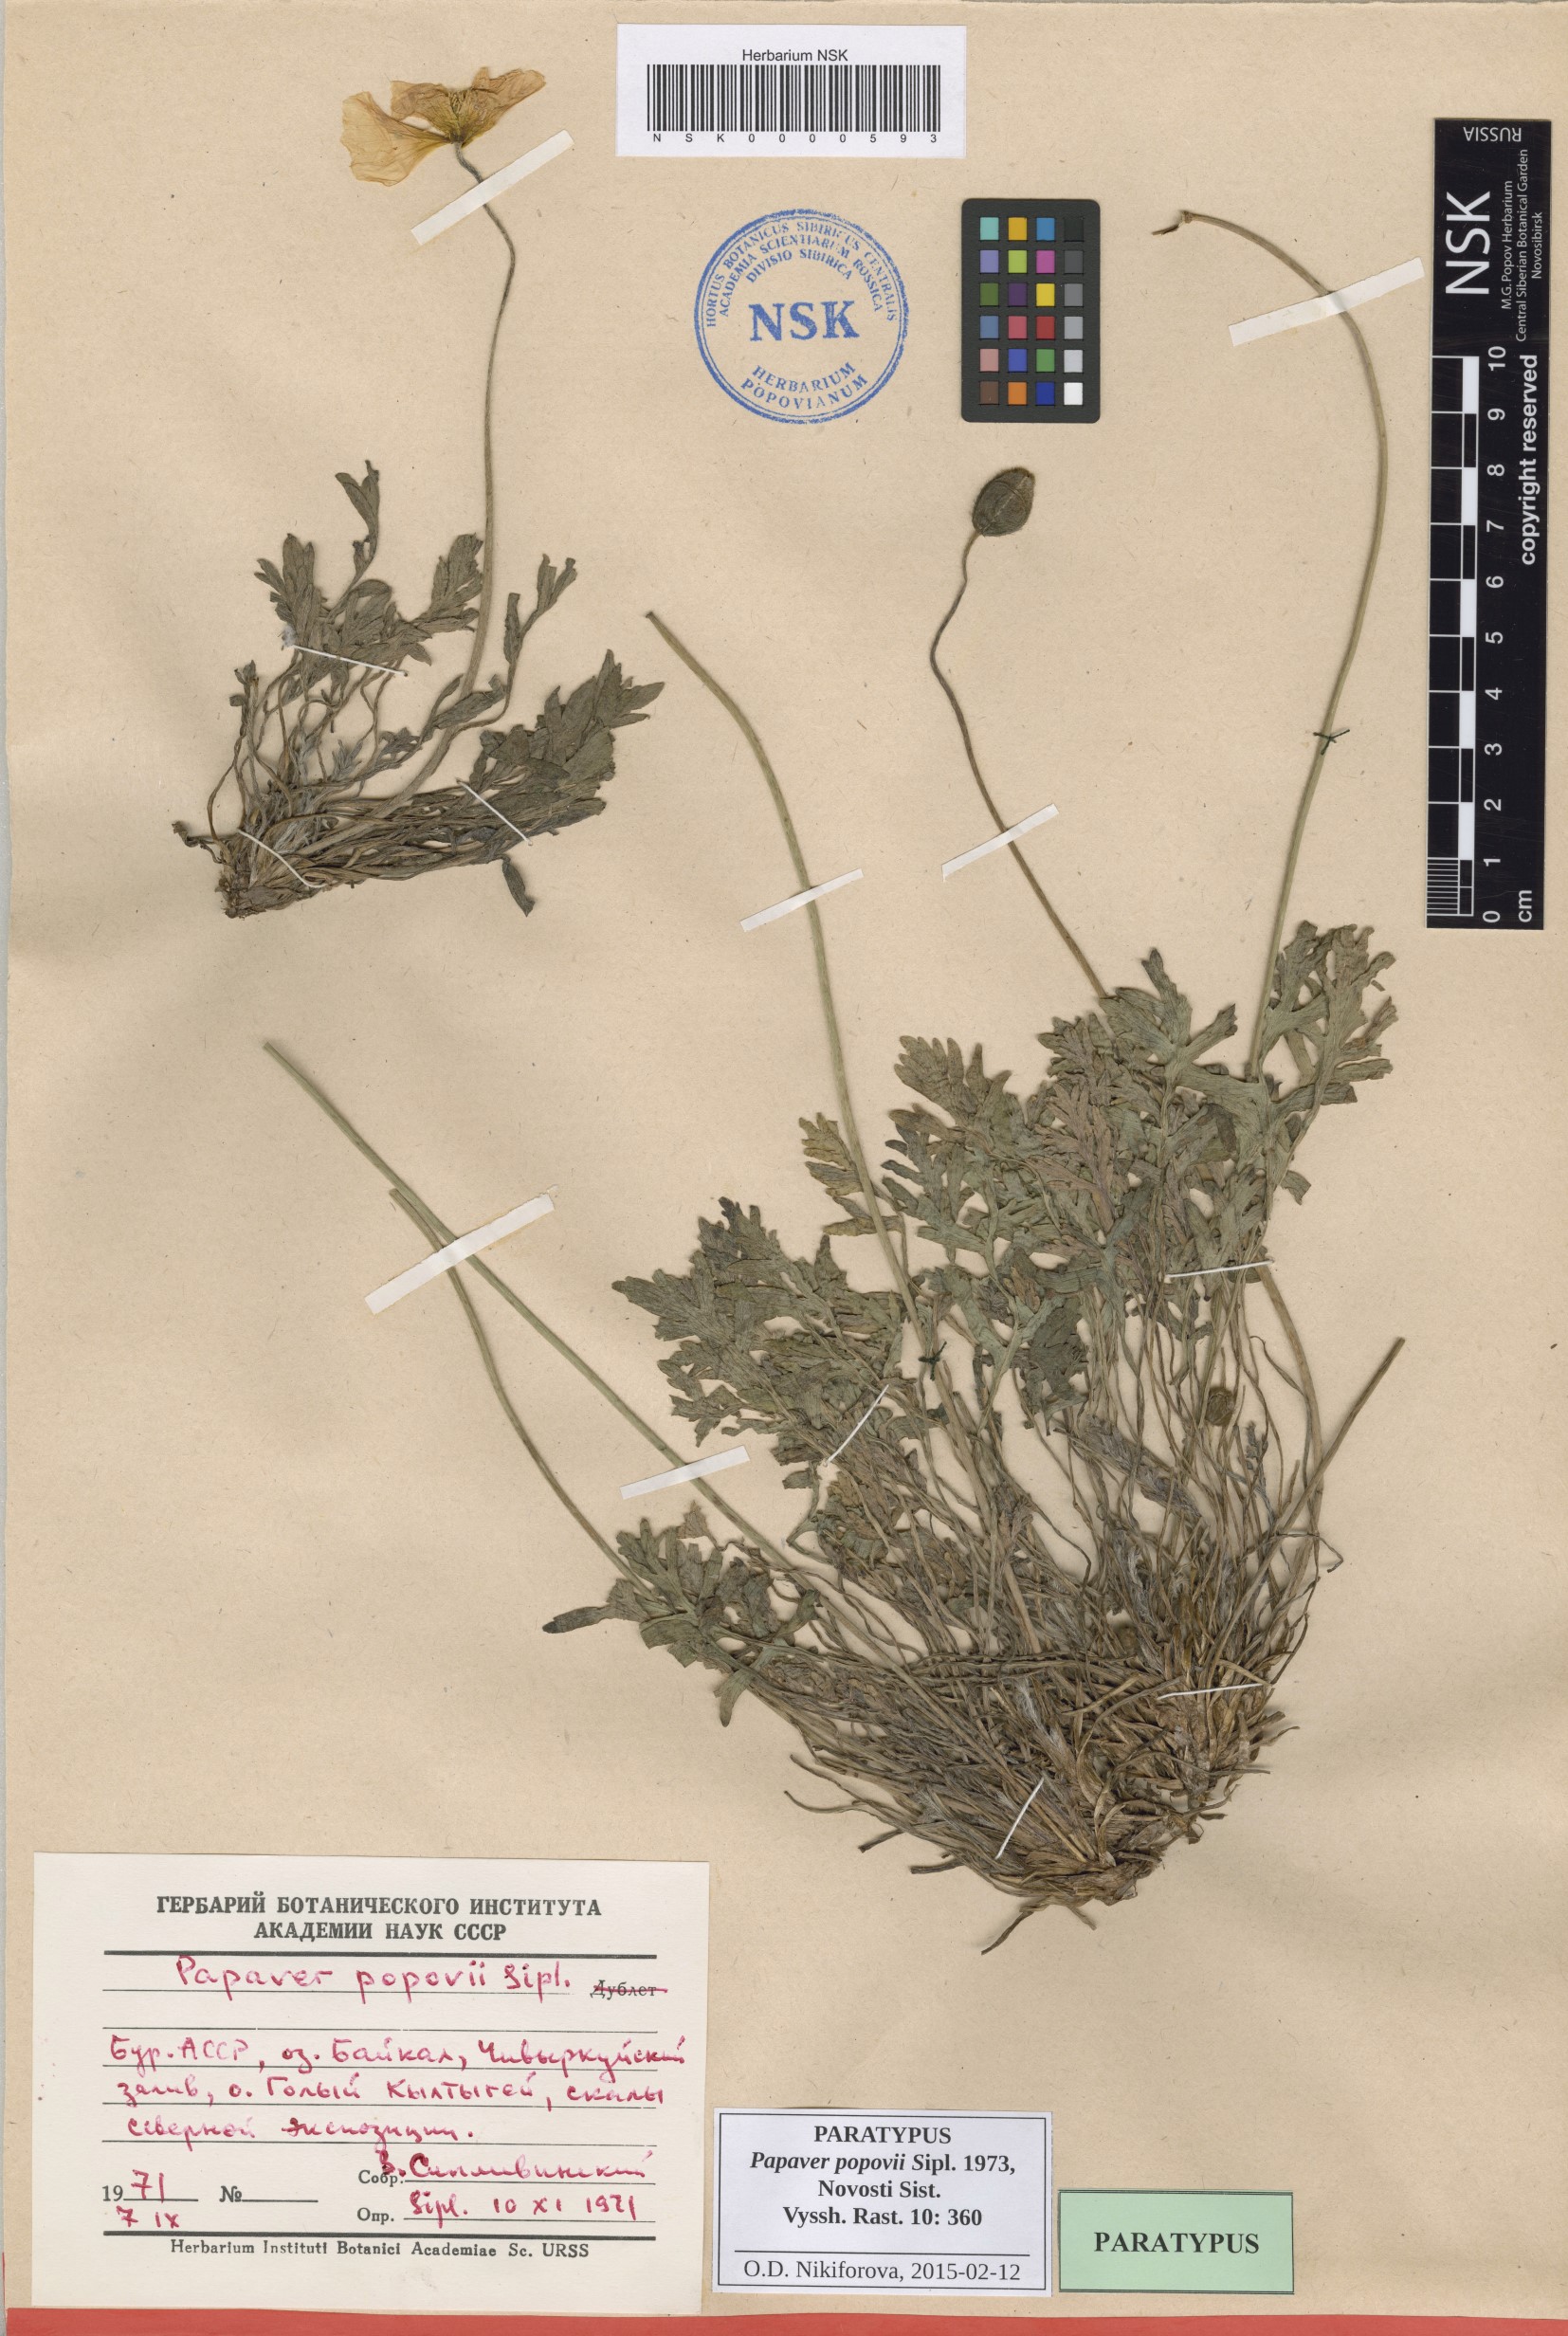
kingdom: Plantae
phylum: Tracheophyta
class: Magnoliopsida
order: Ranunculales
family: Papaveraceae
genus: Papaver
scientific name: Papaver popovii
